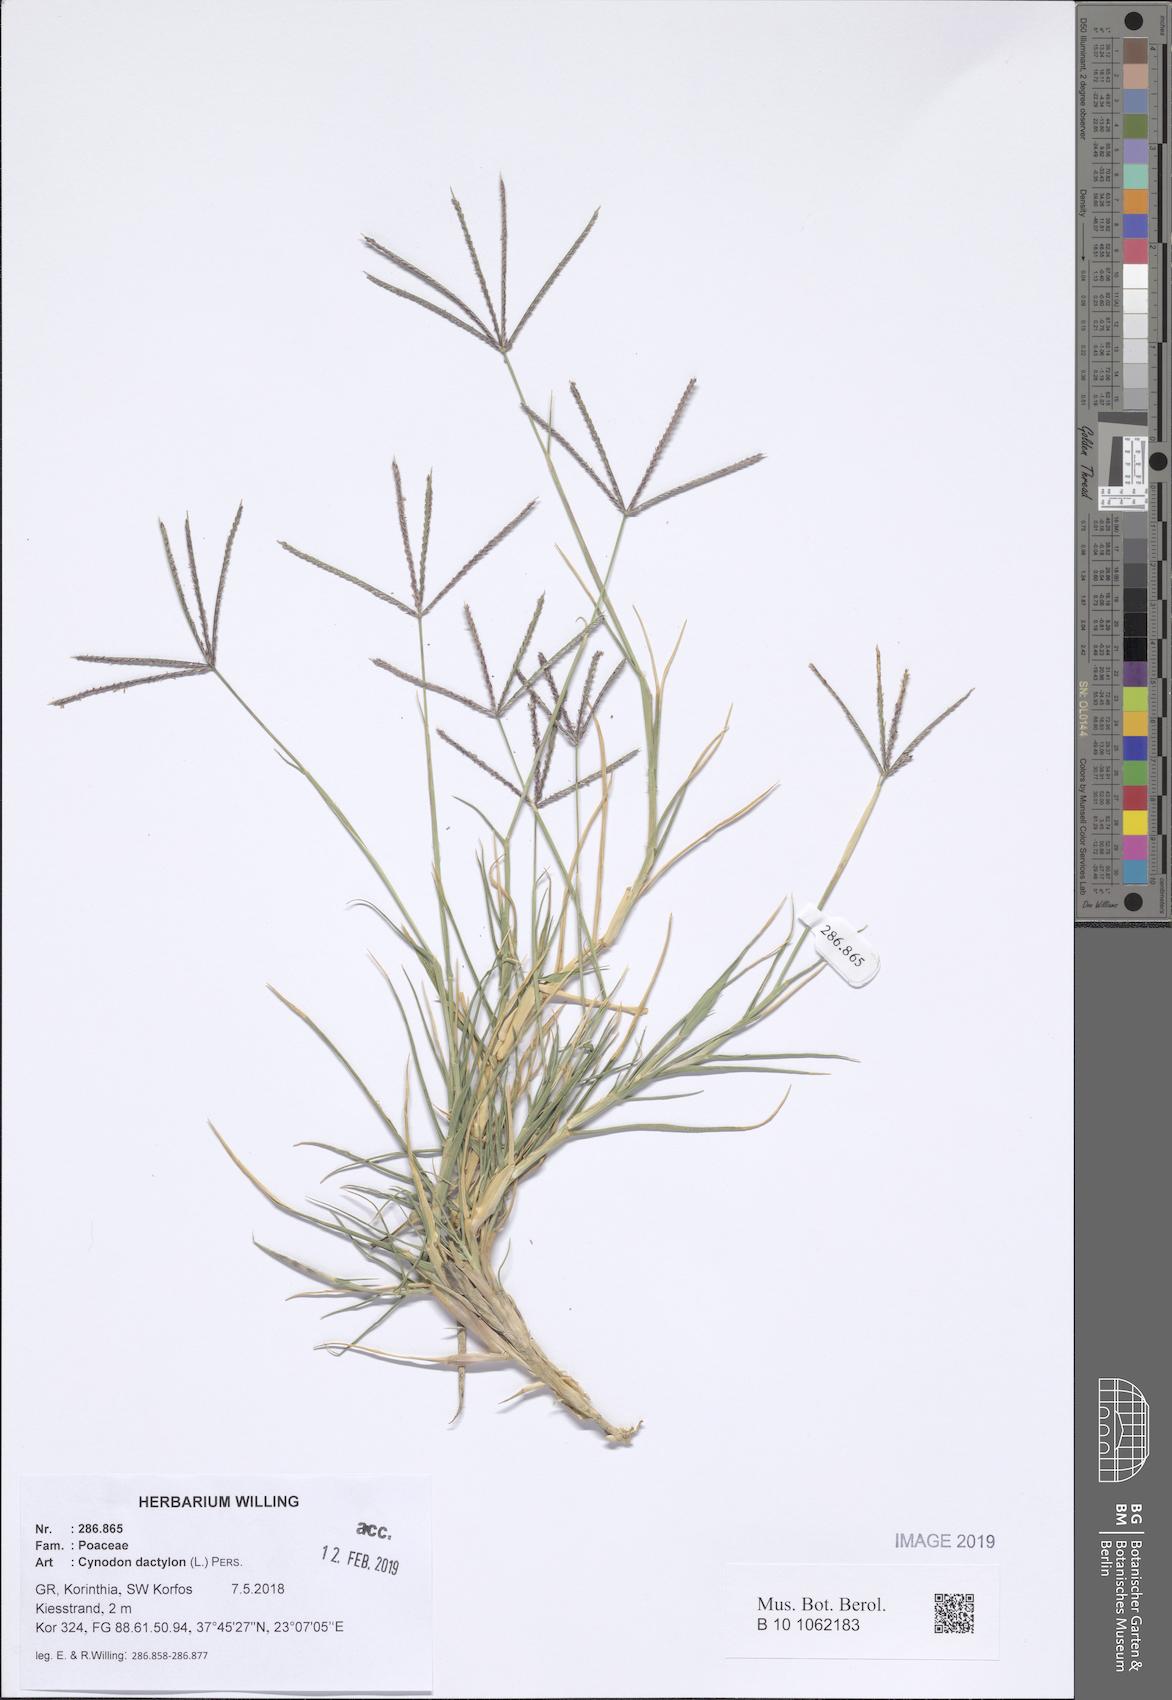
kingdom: Plantae
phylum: Tracheophyta
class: Liliopsida
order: Poales
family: Poaceae
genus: Cynodon
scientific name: Cynodon dactylon
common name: Bermuda grass
